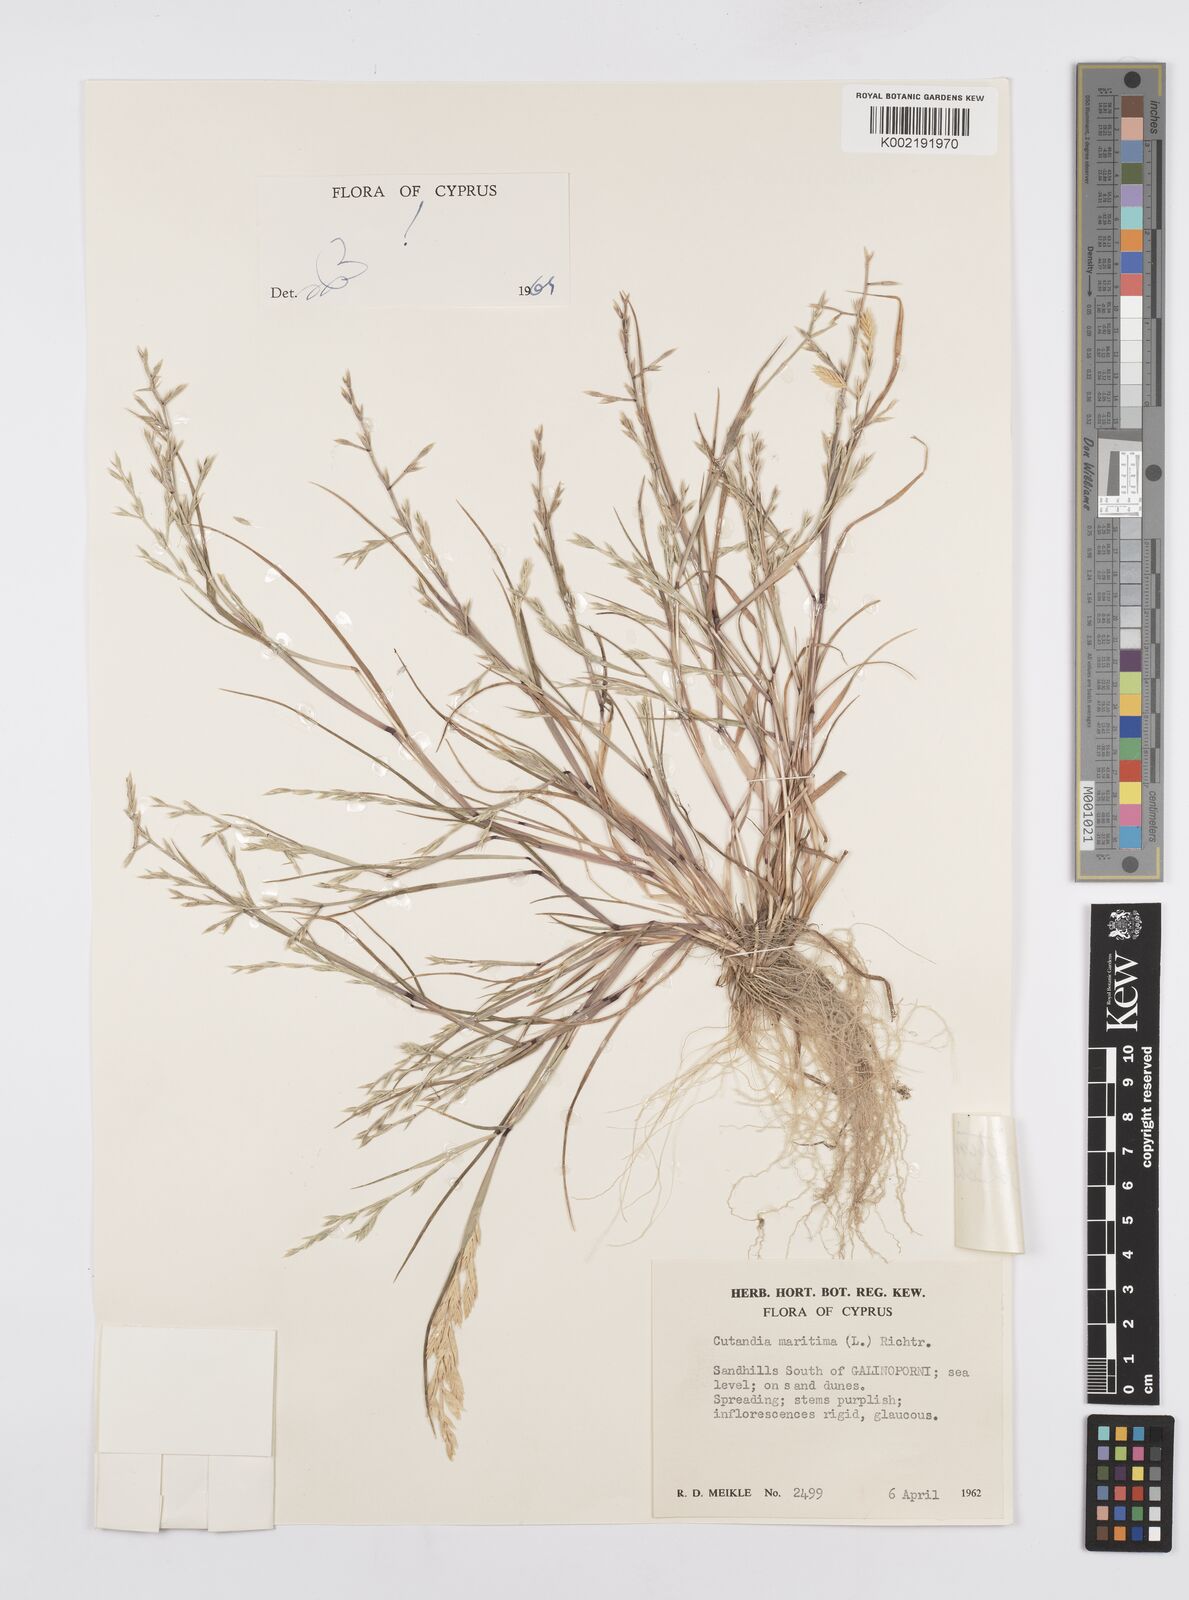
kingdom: Plantae
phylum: Tracheophyta
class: Liliopsida
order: Poales
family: Poaceae
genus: Cutandia
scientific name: Cutandia maritima
